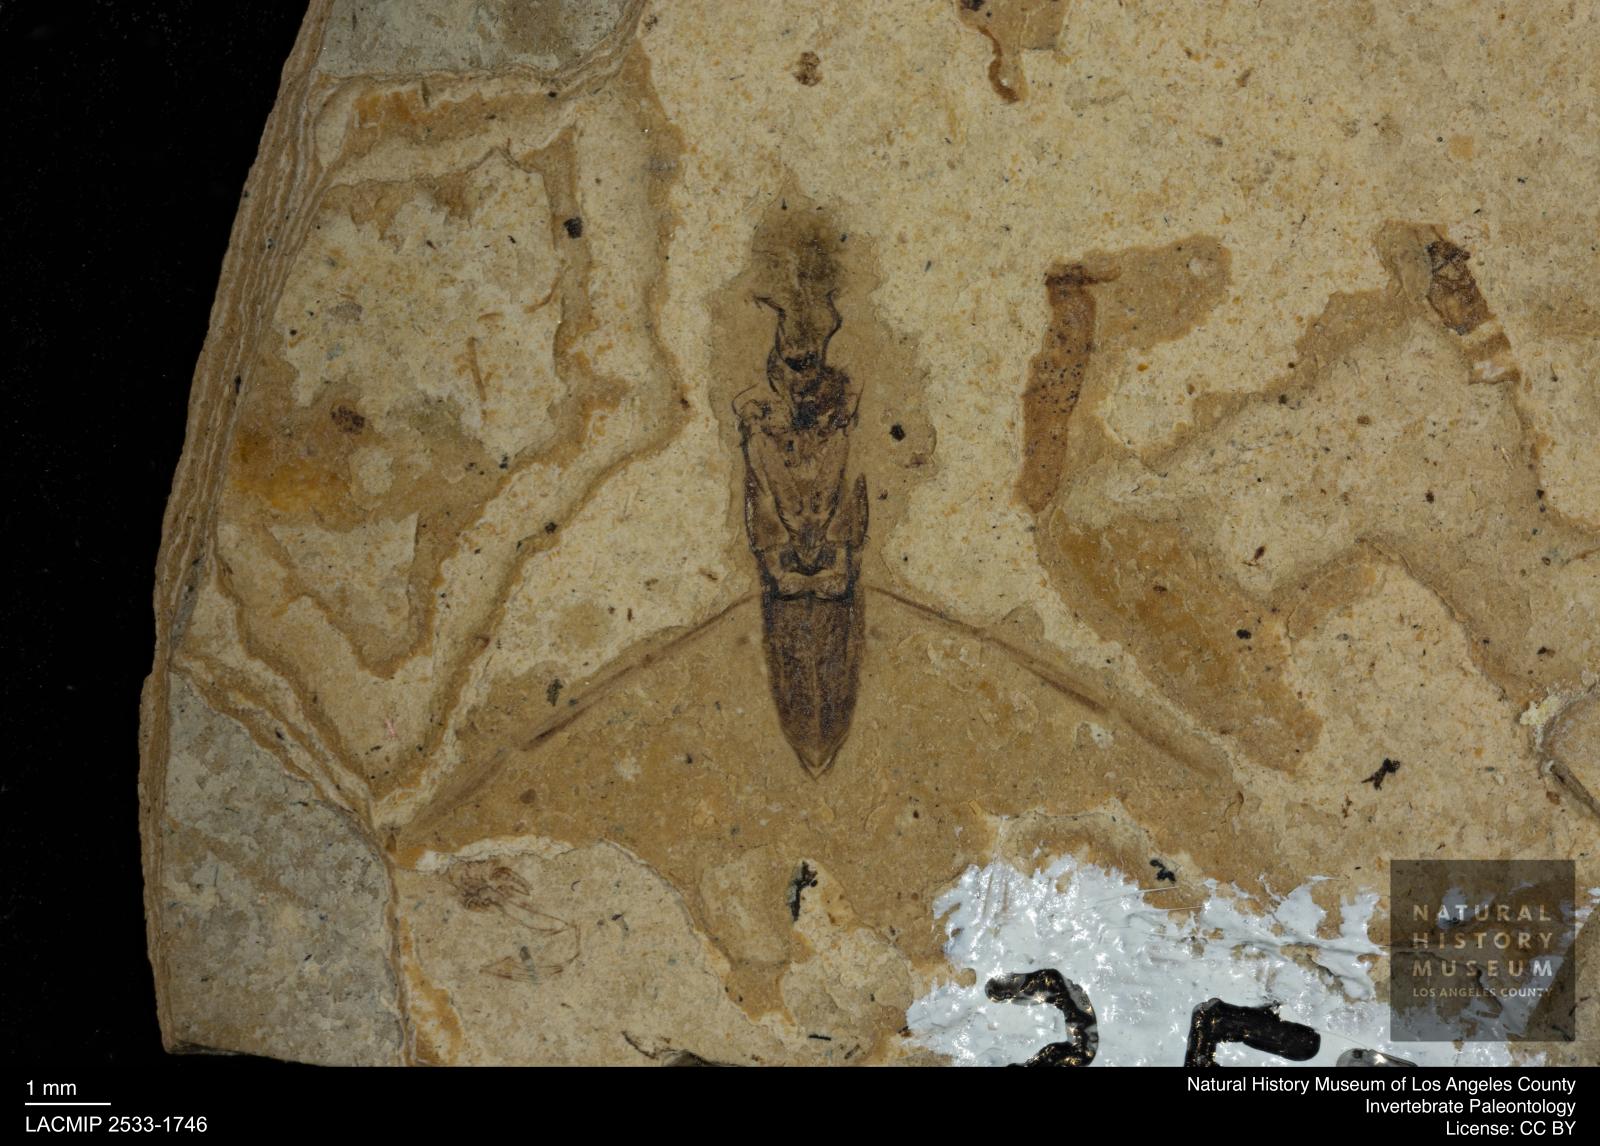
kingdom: Animalia
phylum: Arthropoda
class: Insecta
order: Hemiptera
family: Notonectidae
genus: Notonecta
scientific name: Notonecta
